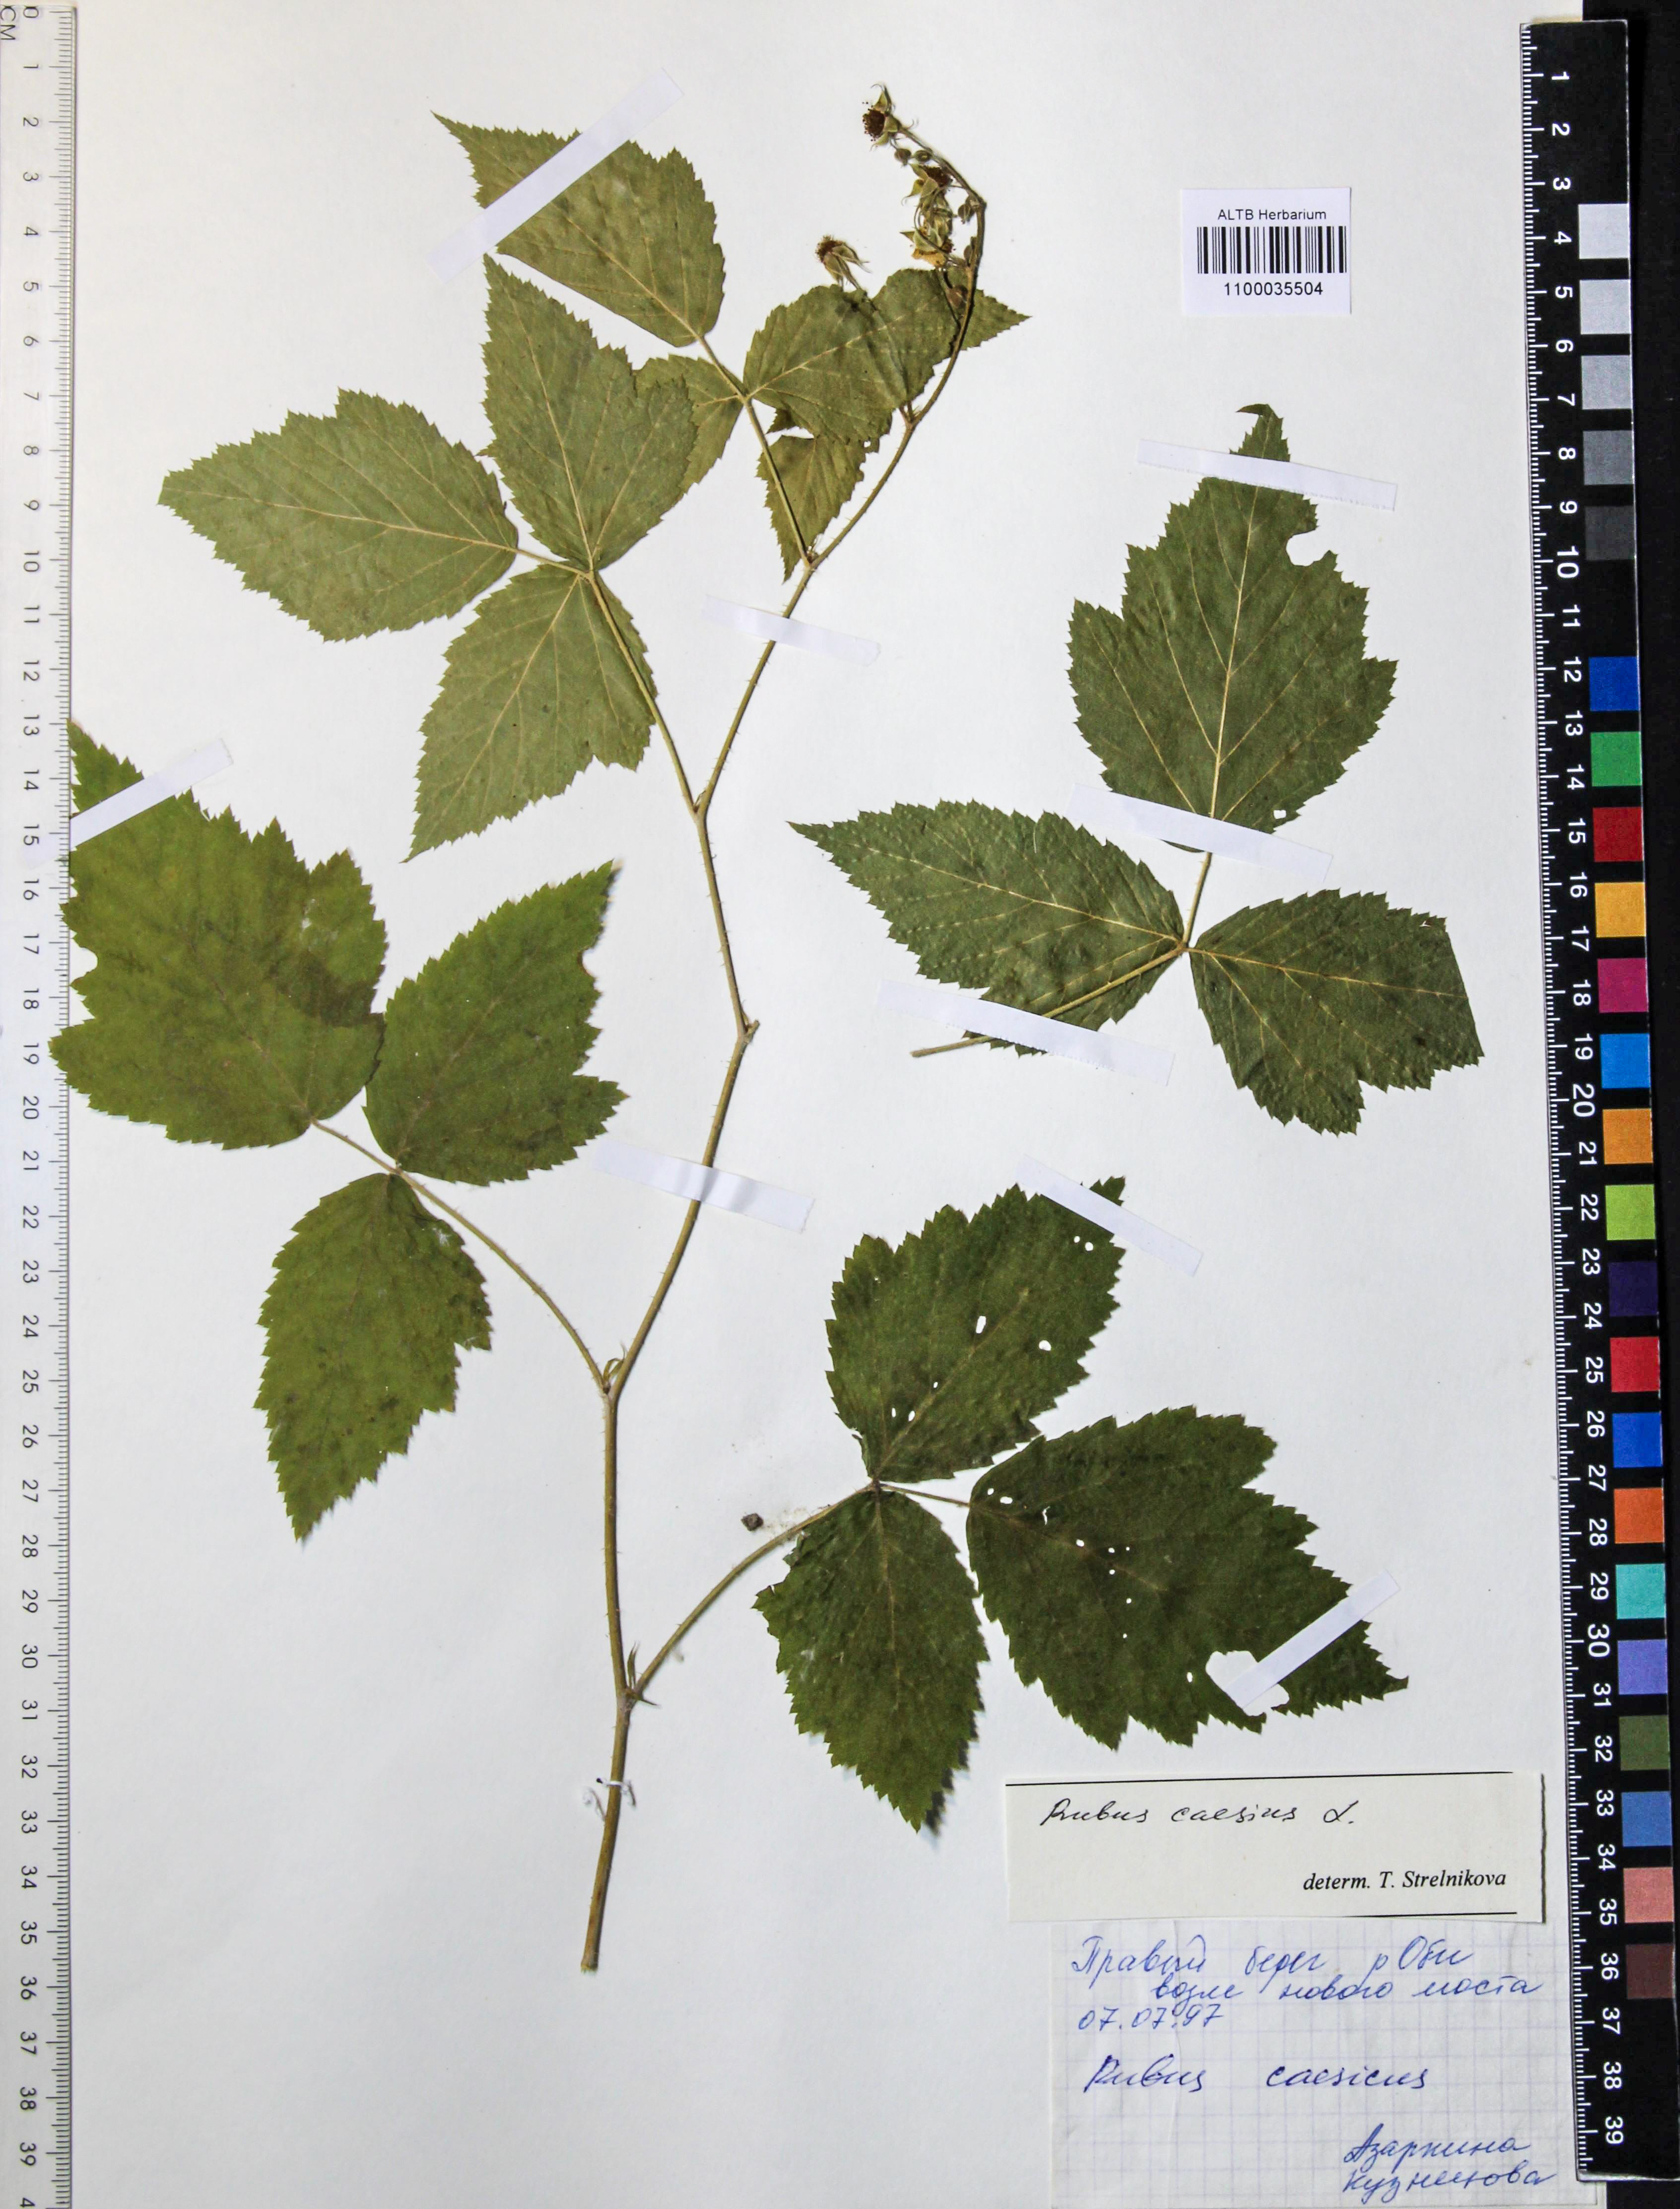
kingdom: Plantae
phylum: Tracheophyta
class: Magnoliopsida
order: Rosales
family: Rosaceae
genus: Rubus
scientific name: Rubus caesius
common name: Dewberry
